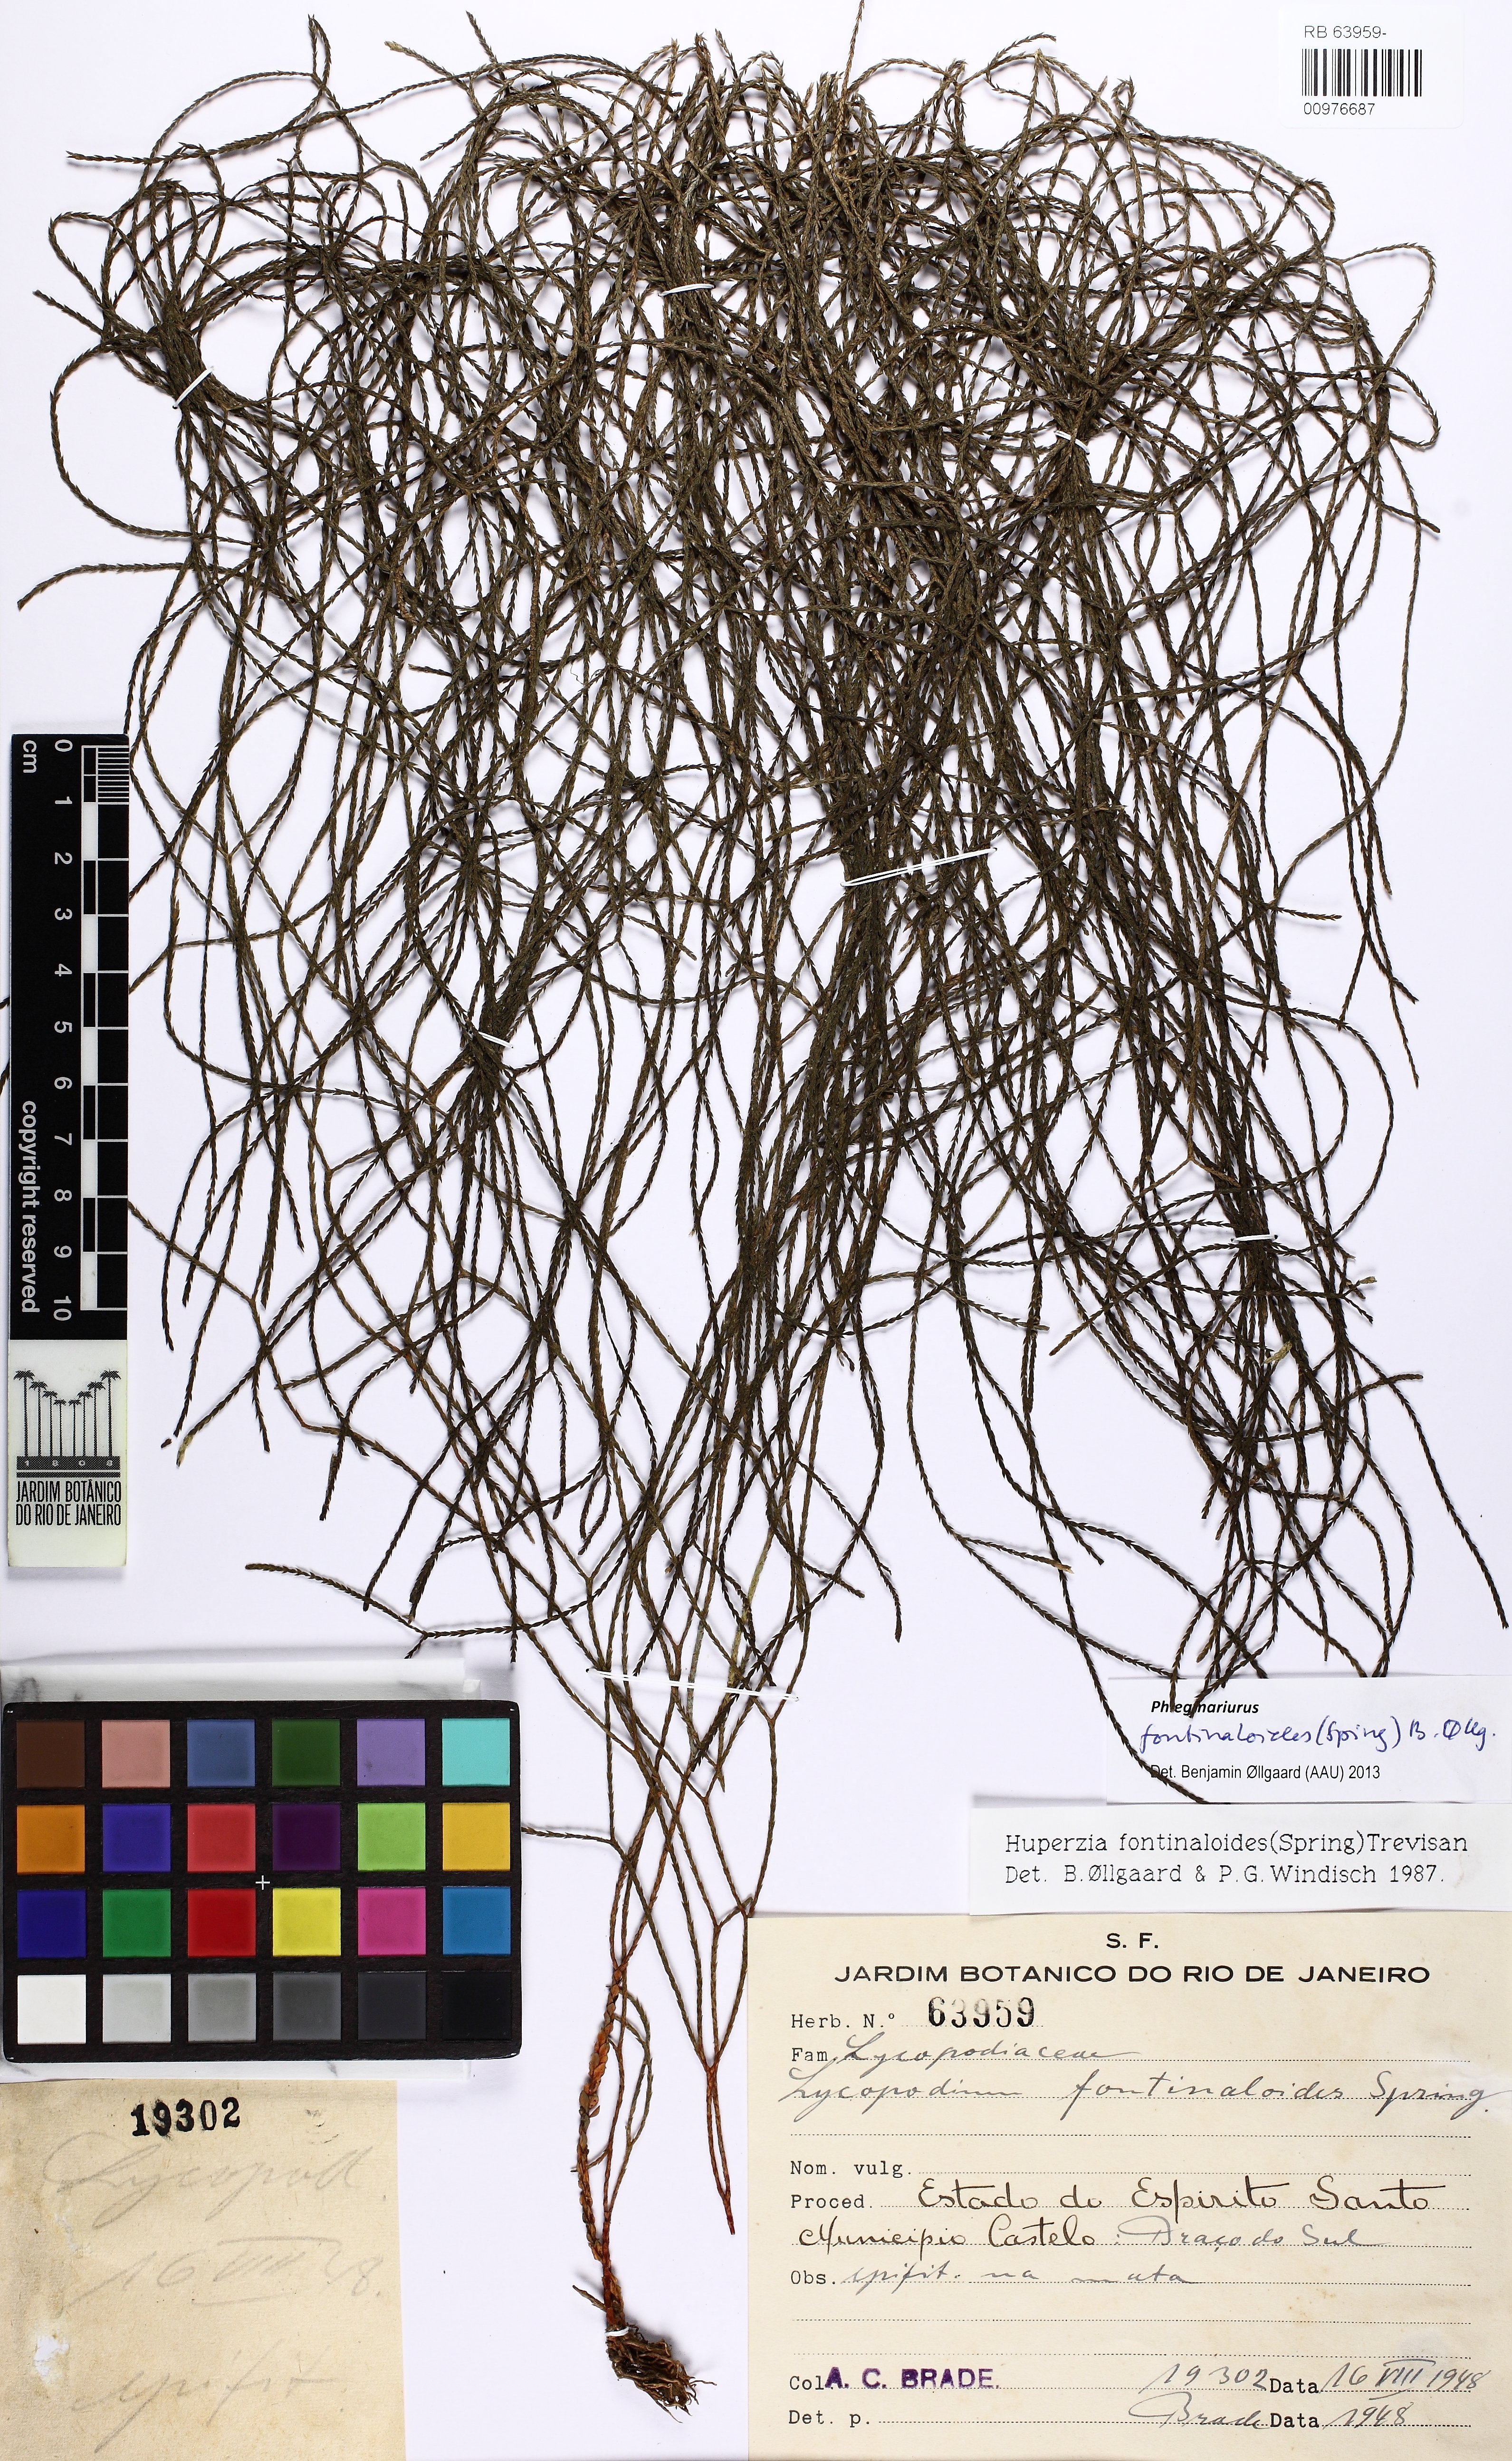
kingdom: Plantae
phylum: Tracheophyta
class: Lycopodiopsida
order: Lycopodiales
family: Lycopodiaceae
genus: Phlegmariurus
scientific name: Phlegmariurus fontinaloides
